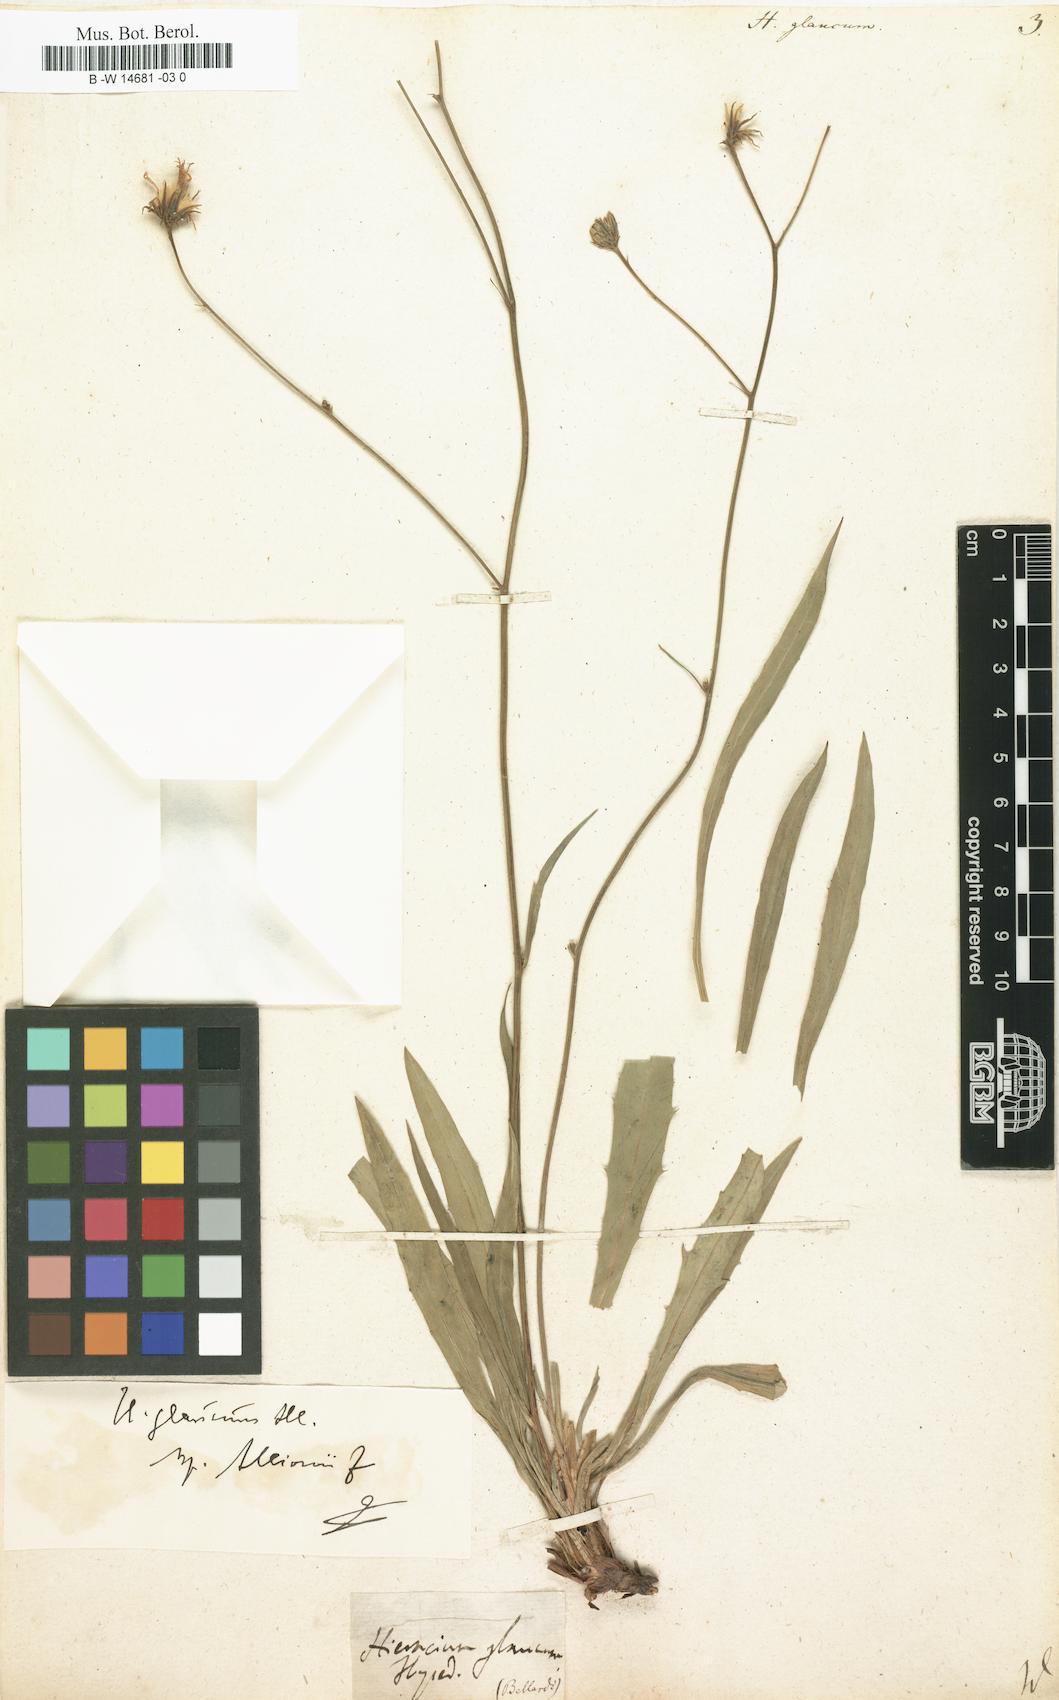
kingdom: Plantae
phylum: Tracheophyta
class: Magnoliopsida
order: Asterales
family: Asteraceae
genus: Hieracium
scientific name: Hieracium glaucum
